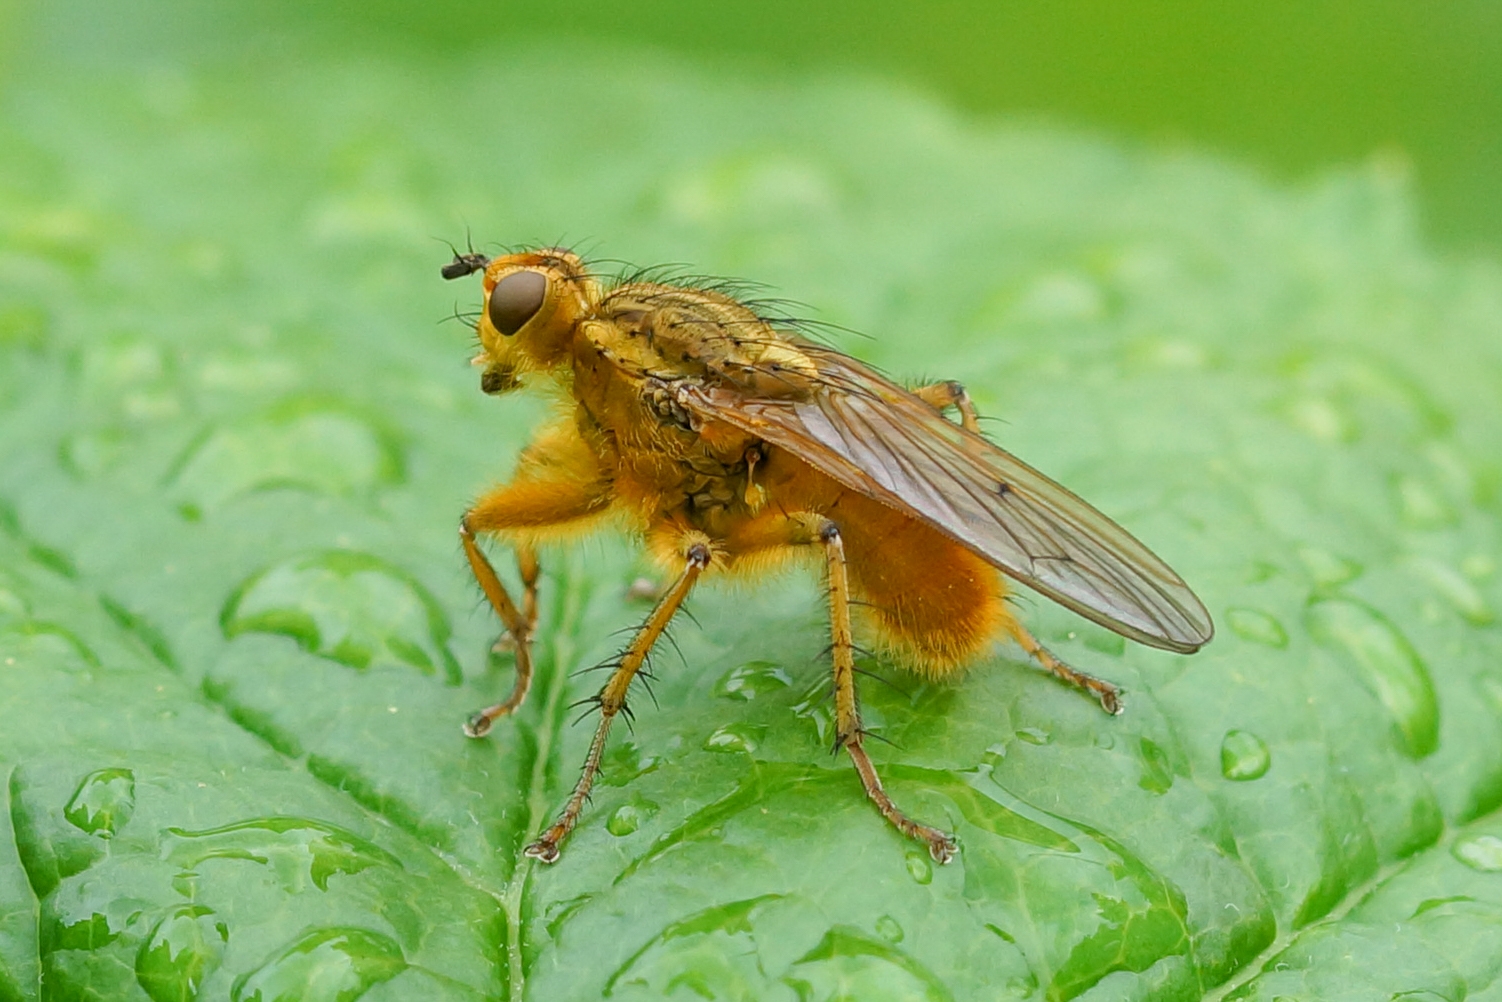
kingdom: Animalia
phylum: Arthropoda
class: Insecta
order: Diptera
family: Scathophagidae
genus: Scathophaga
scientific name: Scathophaga stercoraria
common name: Almindelig gødningsflue
